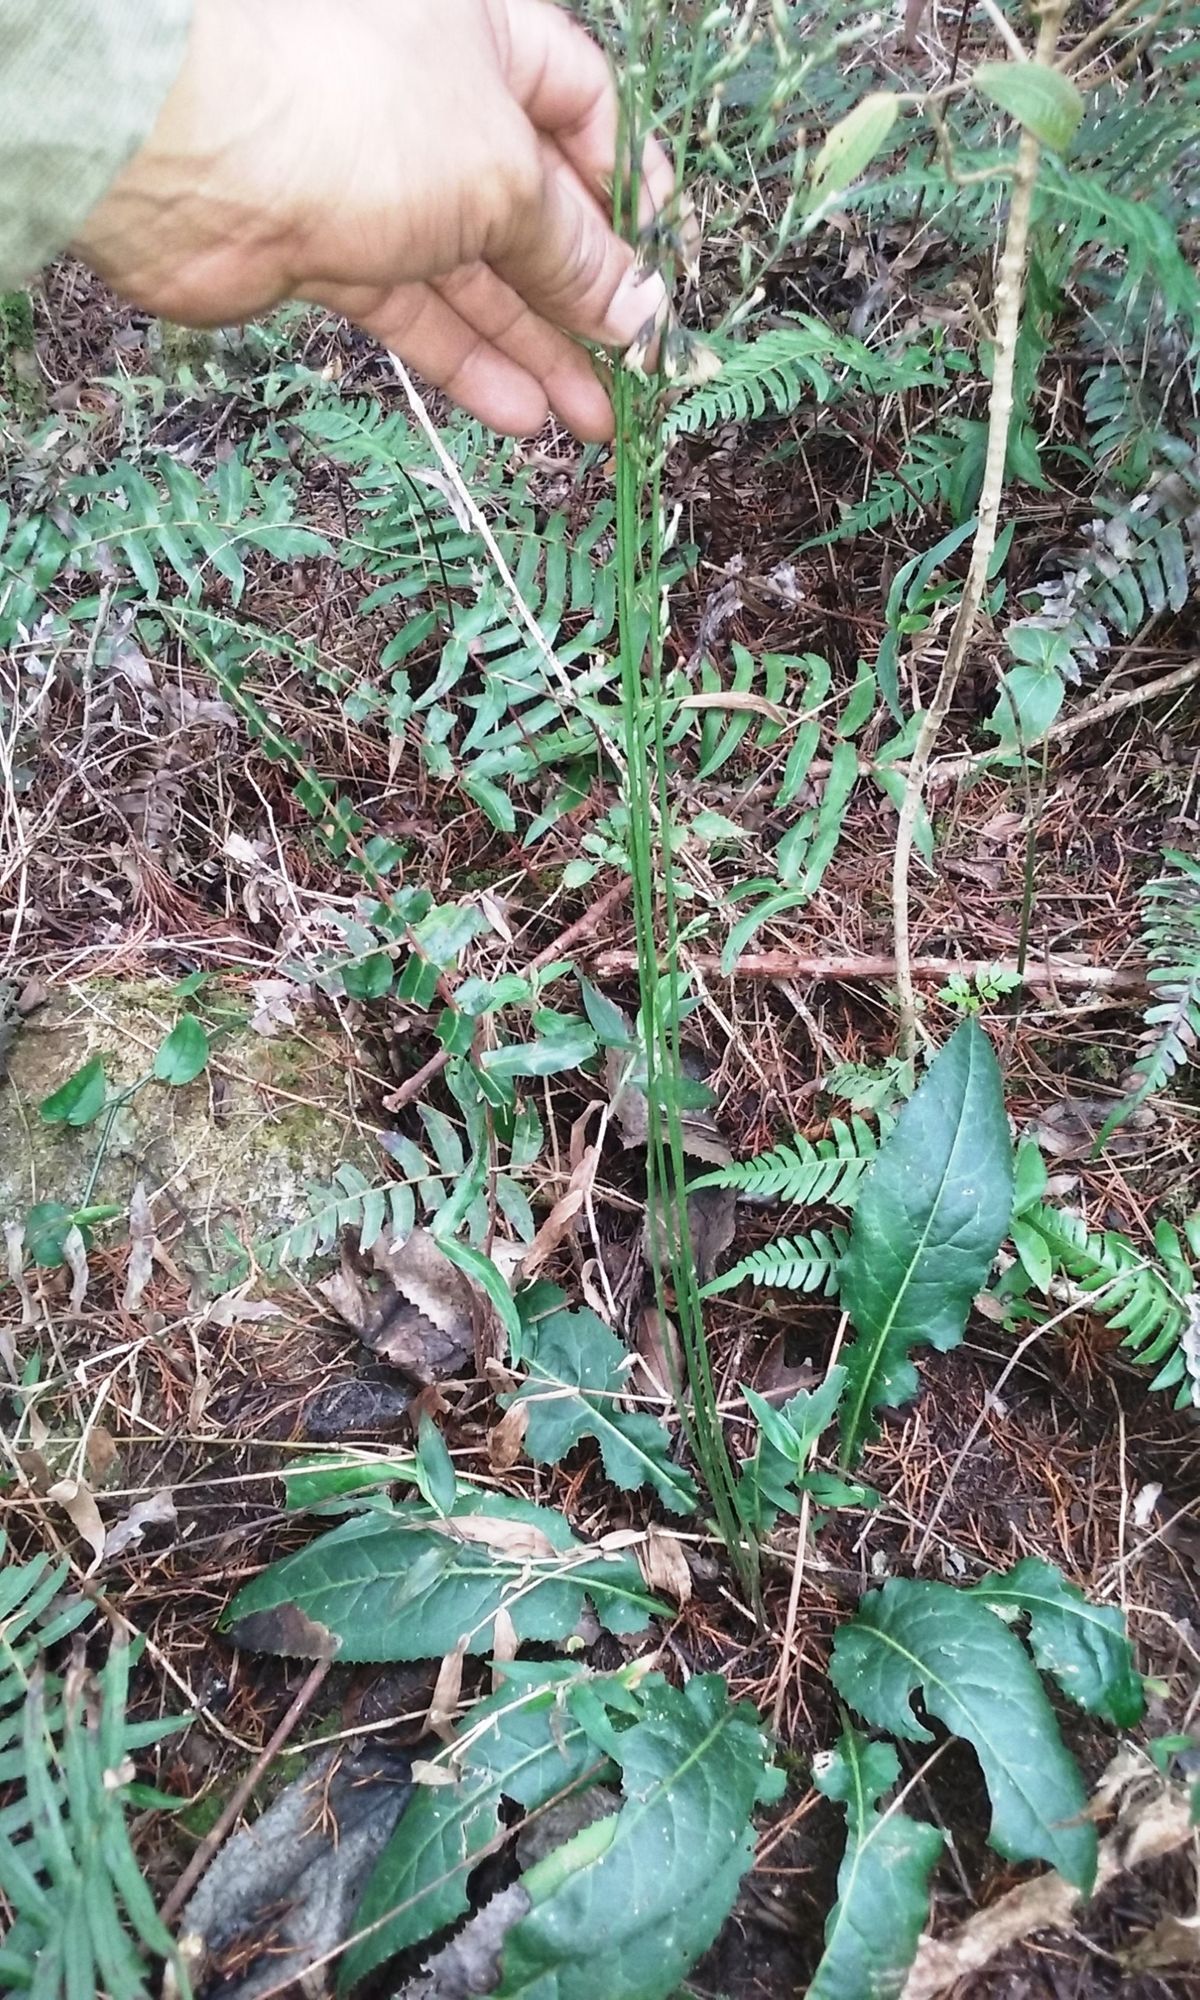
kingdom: Plantae
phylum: Tracheophyta
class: Magnoliopsida
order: Asterales
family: Asteraceae
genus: Acourtia
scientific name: Acourtia nudicaulis
